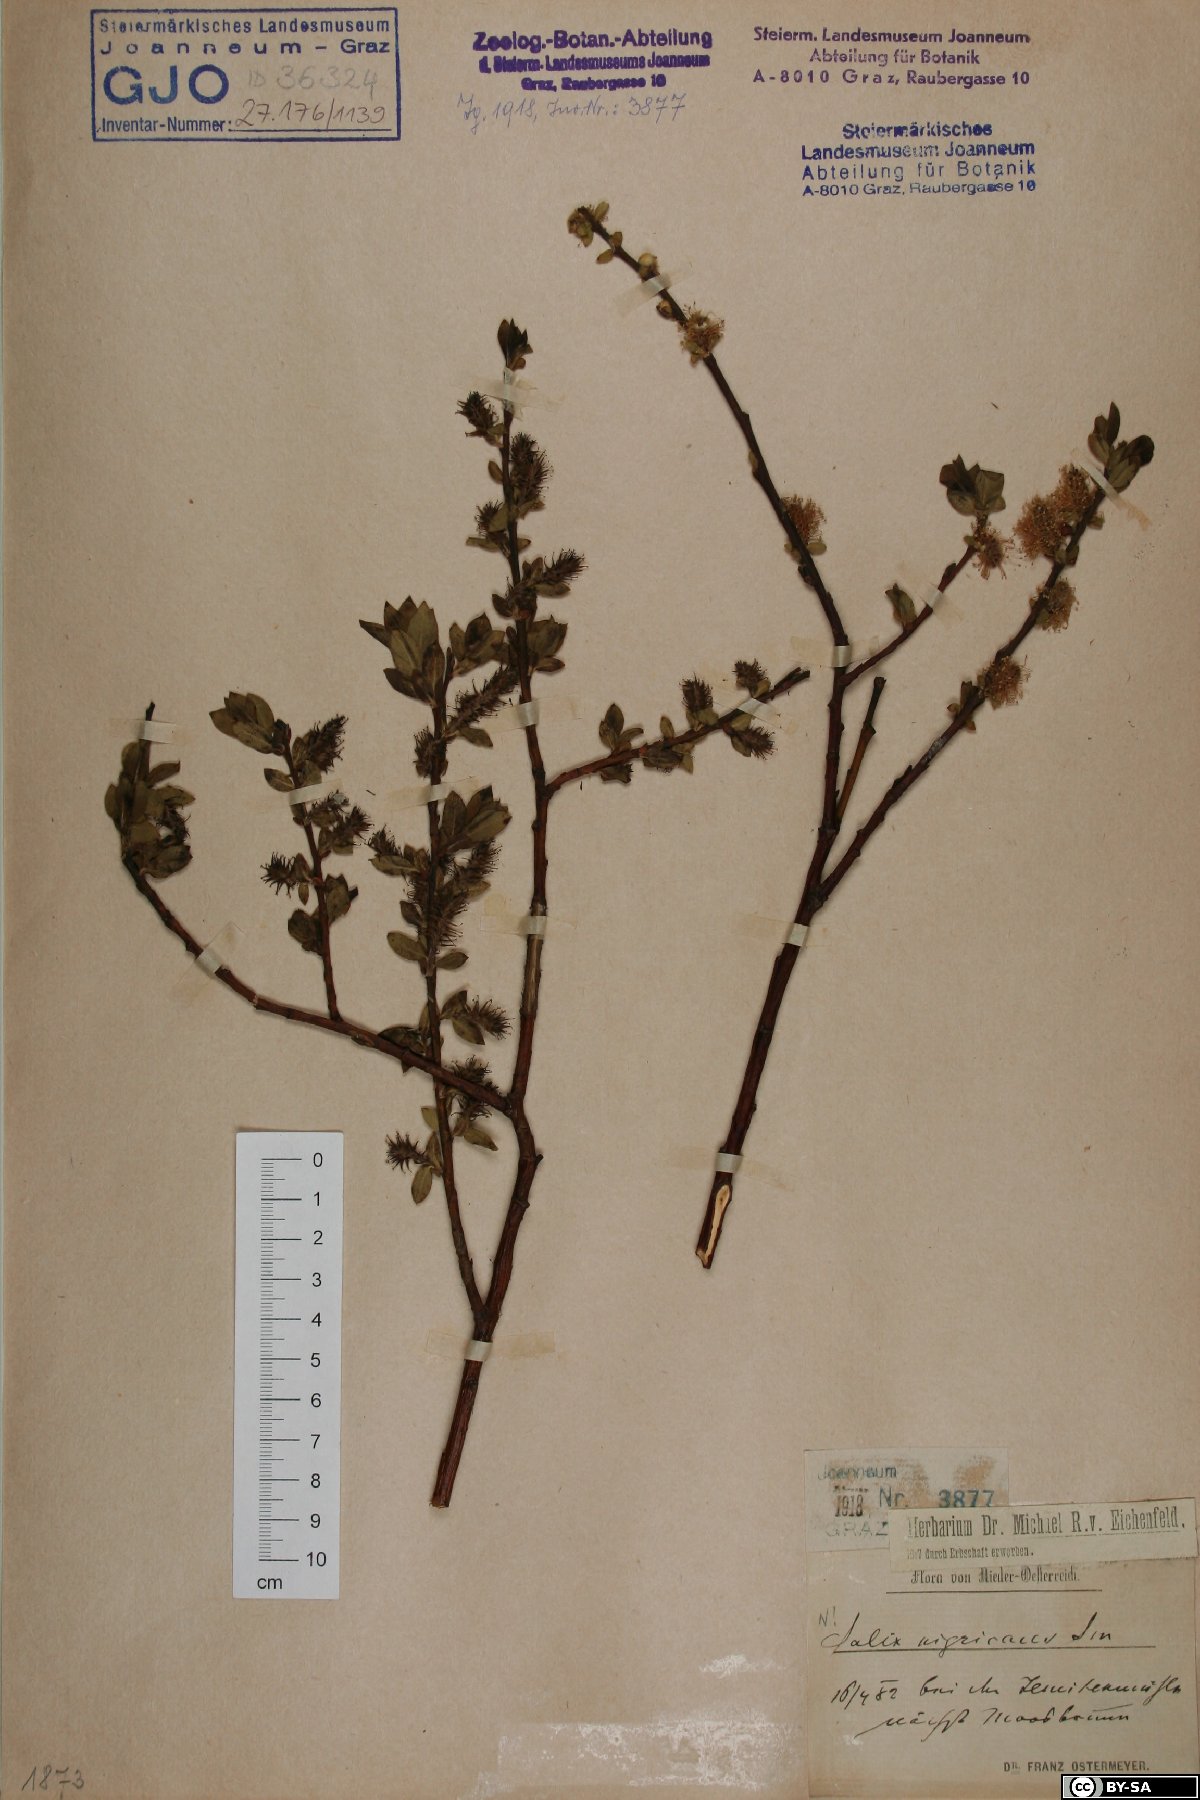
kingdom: Plantae
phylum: Tracheophyta
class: Magnoliopsida
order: Malpighiales
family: Salicaceae
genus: Salix
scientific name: Salix myrsinifolia
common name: Dark-leaved willow
